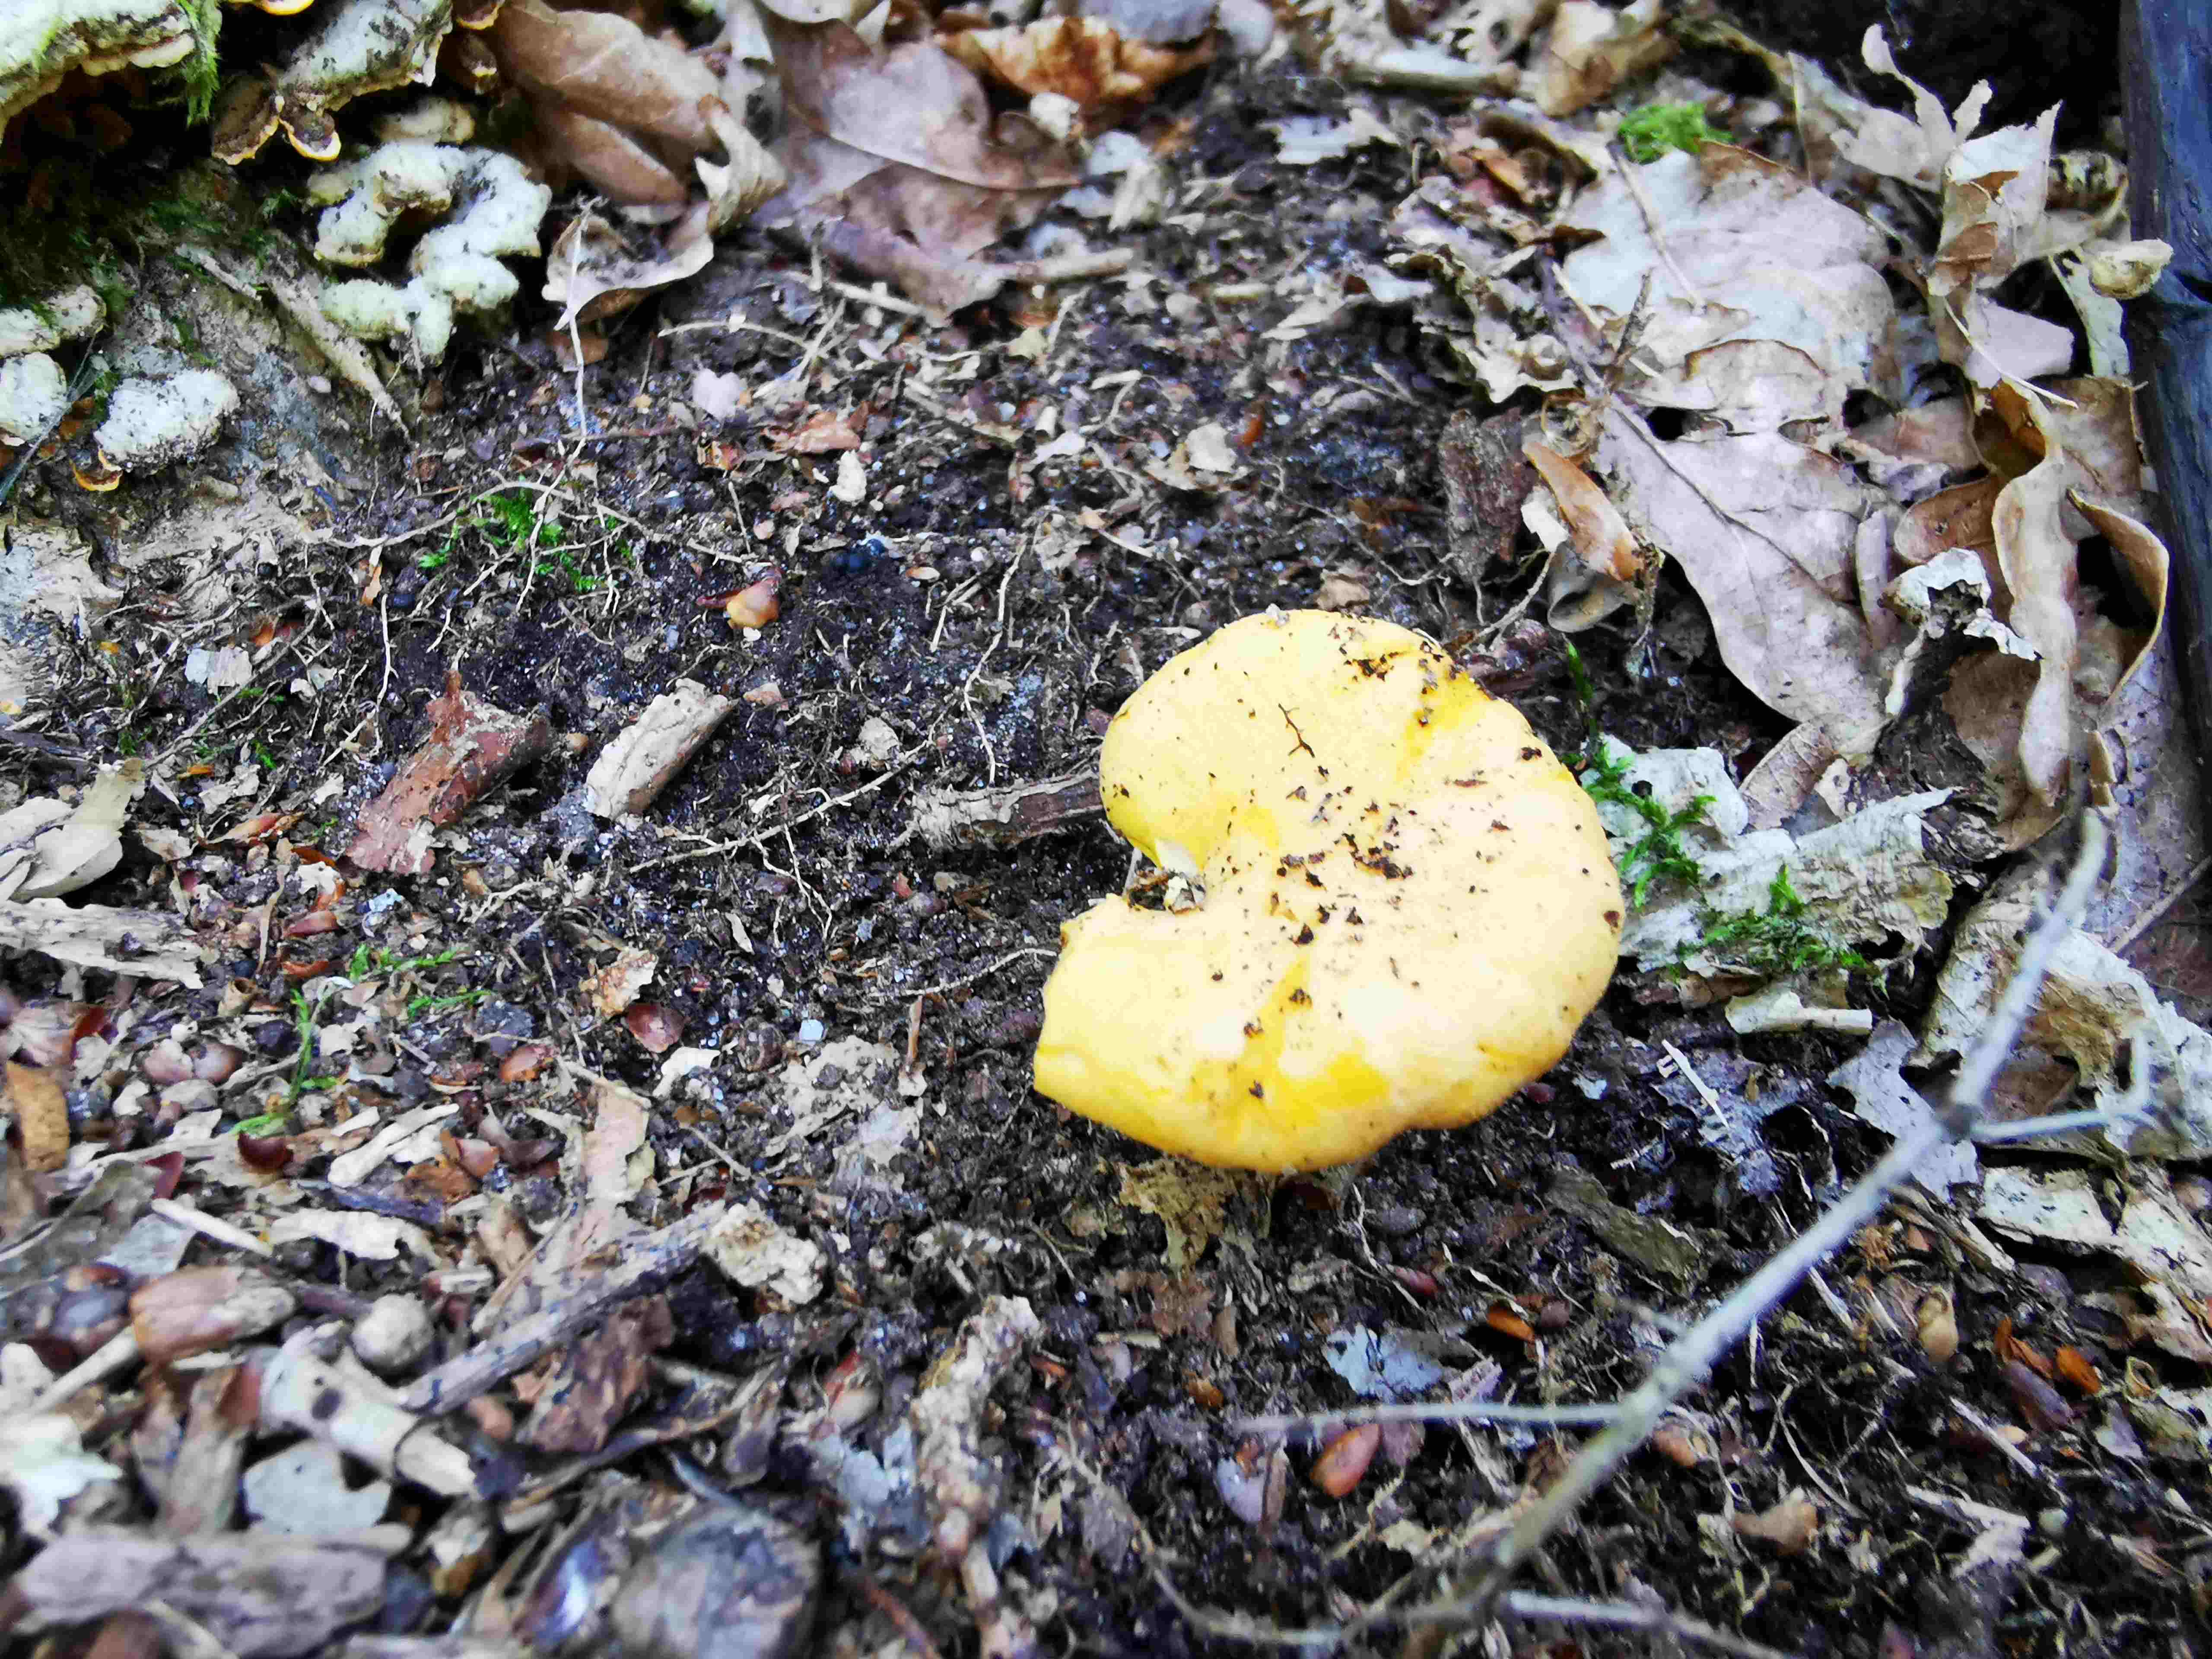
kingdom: Fungi
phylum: Basidiomycota
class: Agaricomycetes
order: Cantharellales
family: Hydnaceae
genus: Cantharellus
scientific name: Cantharellus
